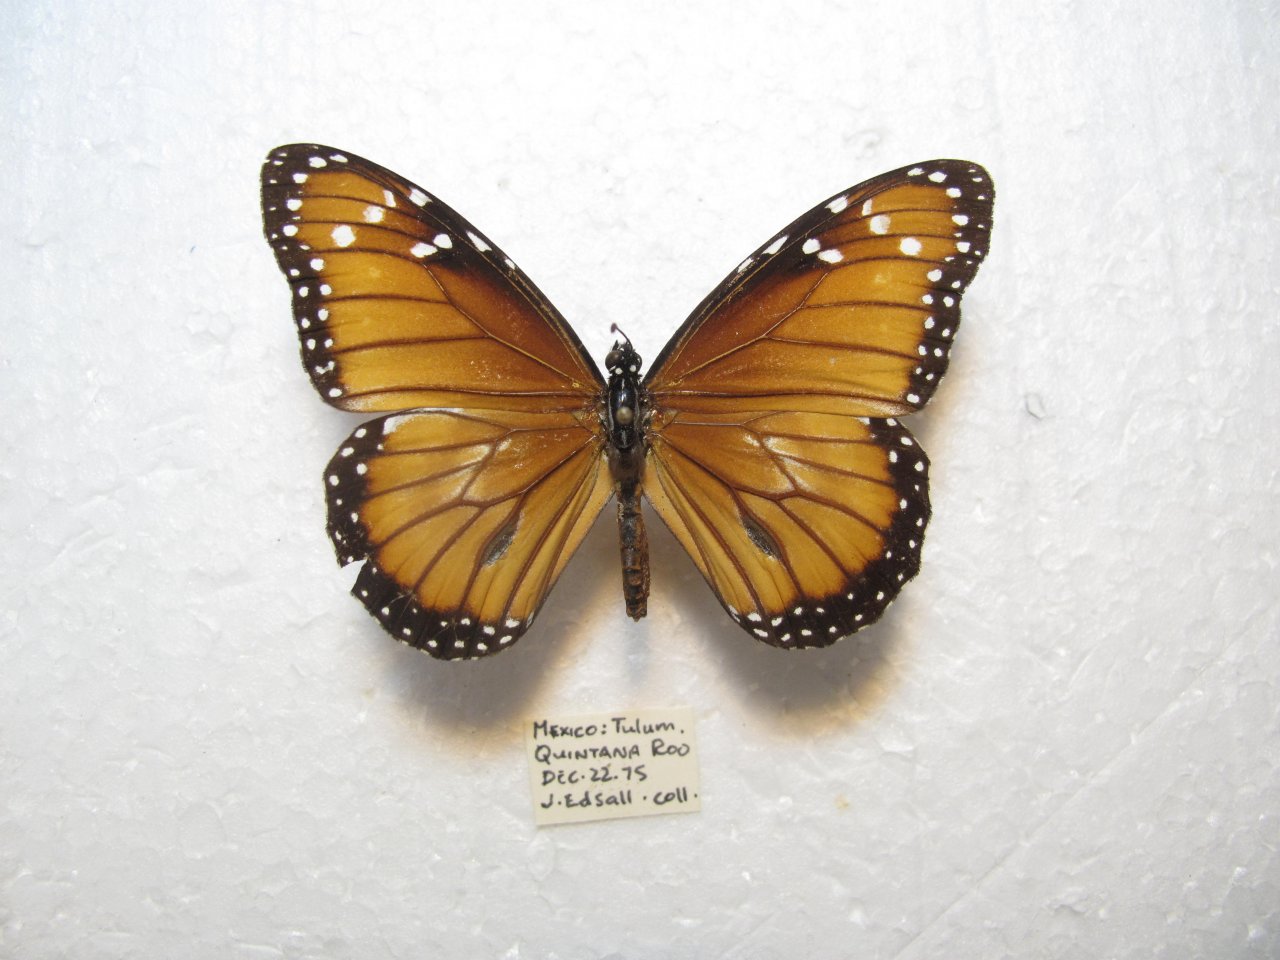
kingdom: Animalia
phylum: Arthropoda
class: Insecta
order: Lepidoptera
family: Nymphalidae
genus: Danaus
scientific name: Danaus eresimus
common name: Soldier
